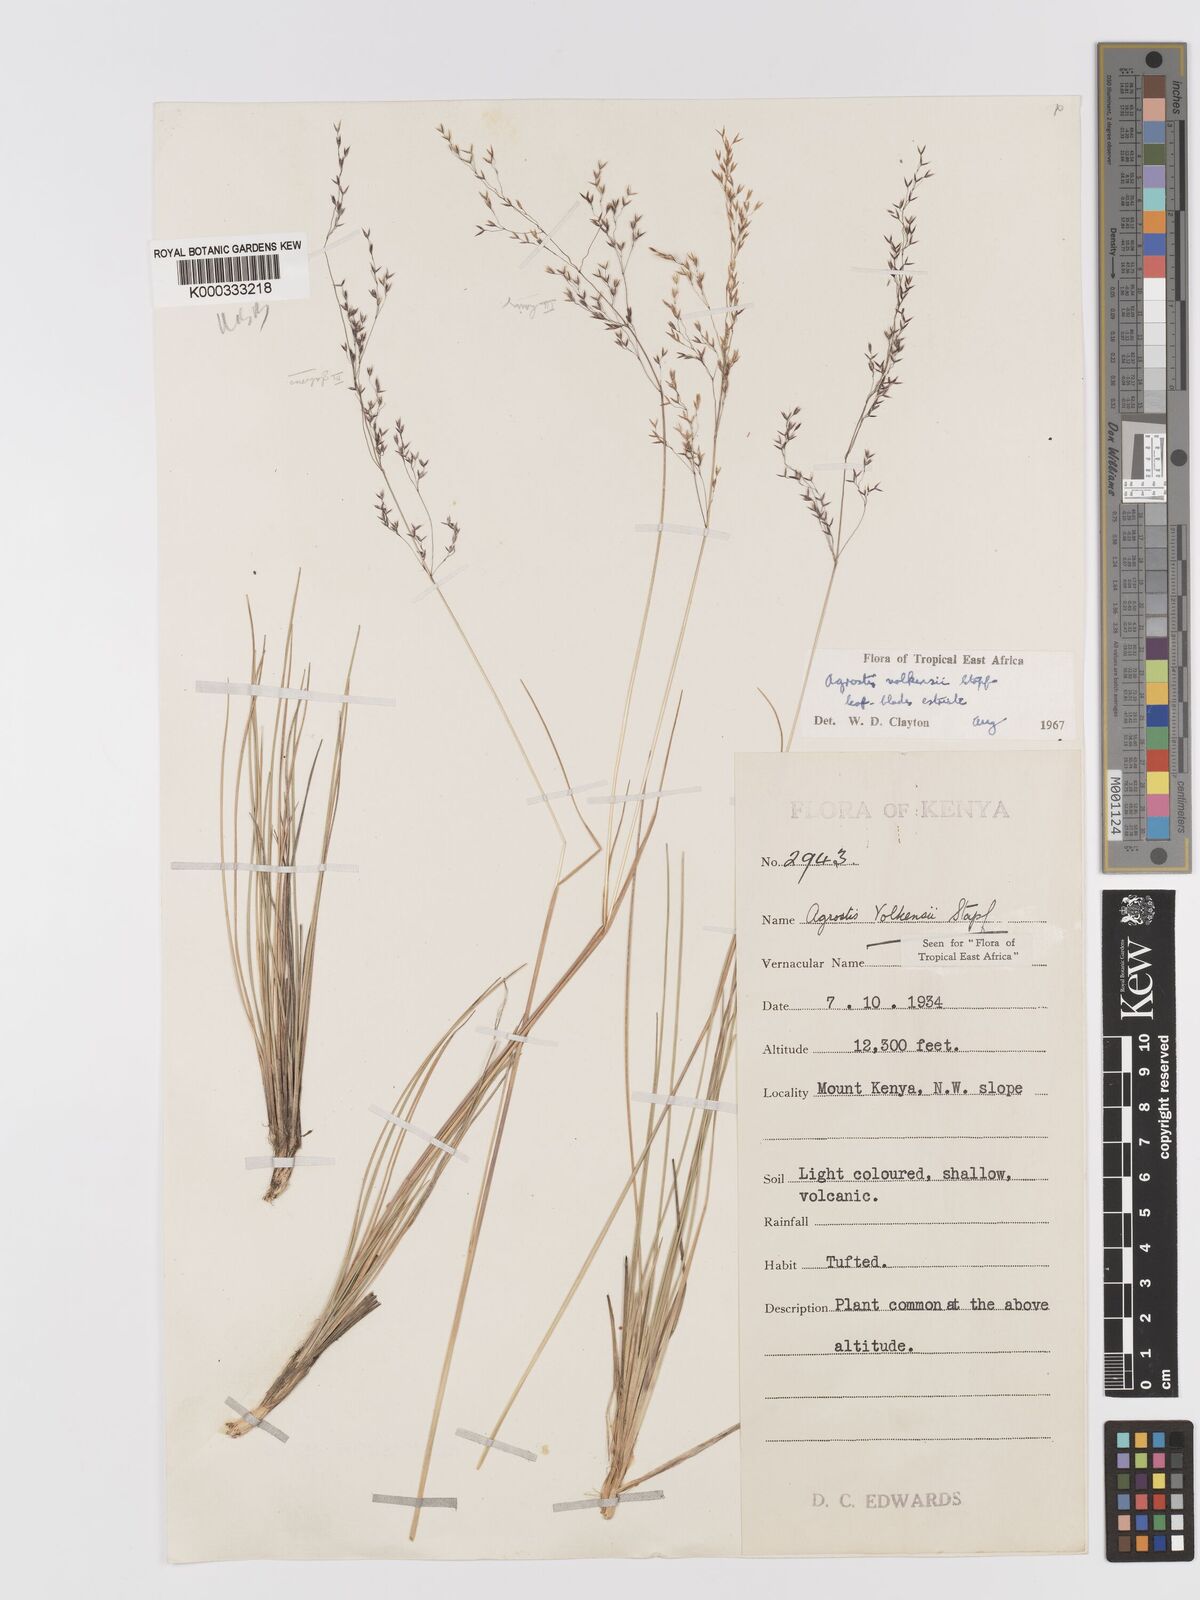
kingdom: Plantae
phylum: Tracheophyta
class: Liliopsida
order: Poales
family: Poaceae
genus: Agrostis
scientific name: Agrostis volkensii
